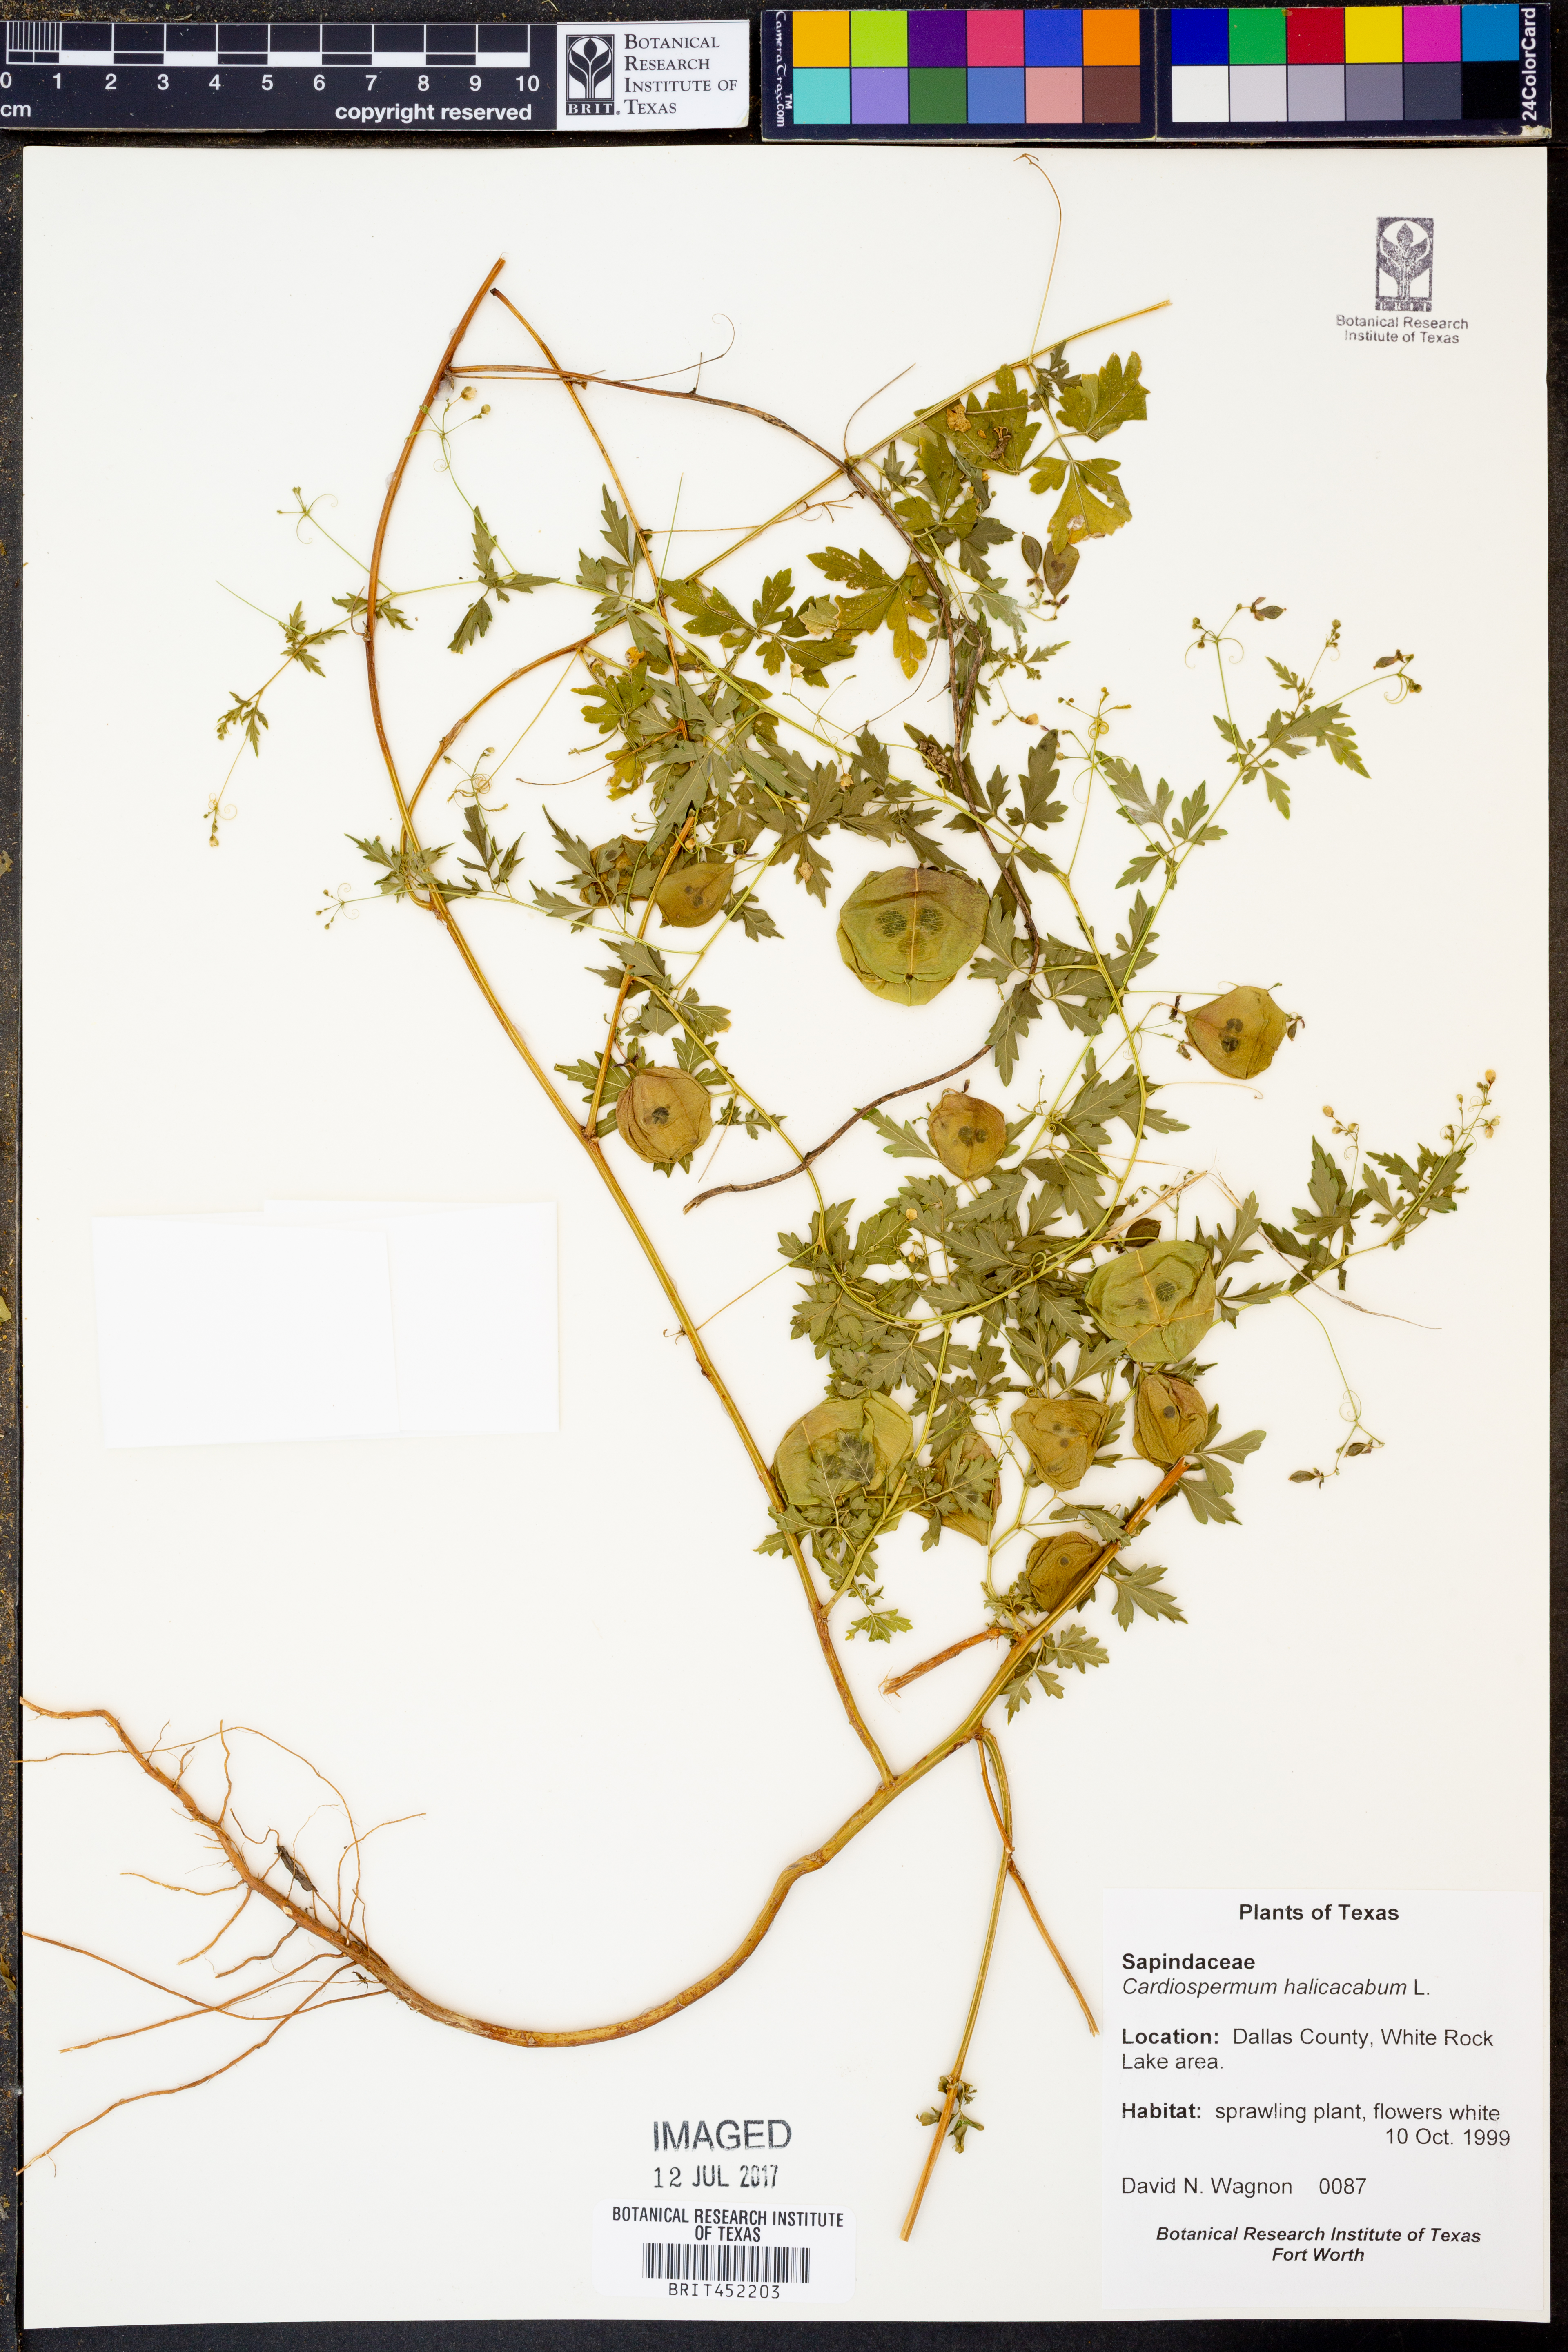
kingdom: Plantae
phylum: Tracheophyta
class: Magnoliopsida
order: Sapindales
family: Sapindaceae
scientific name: Sapindaceae
